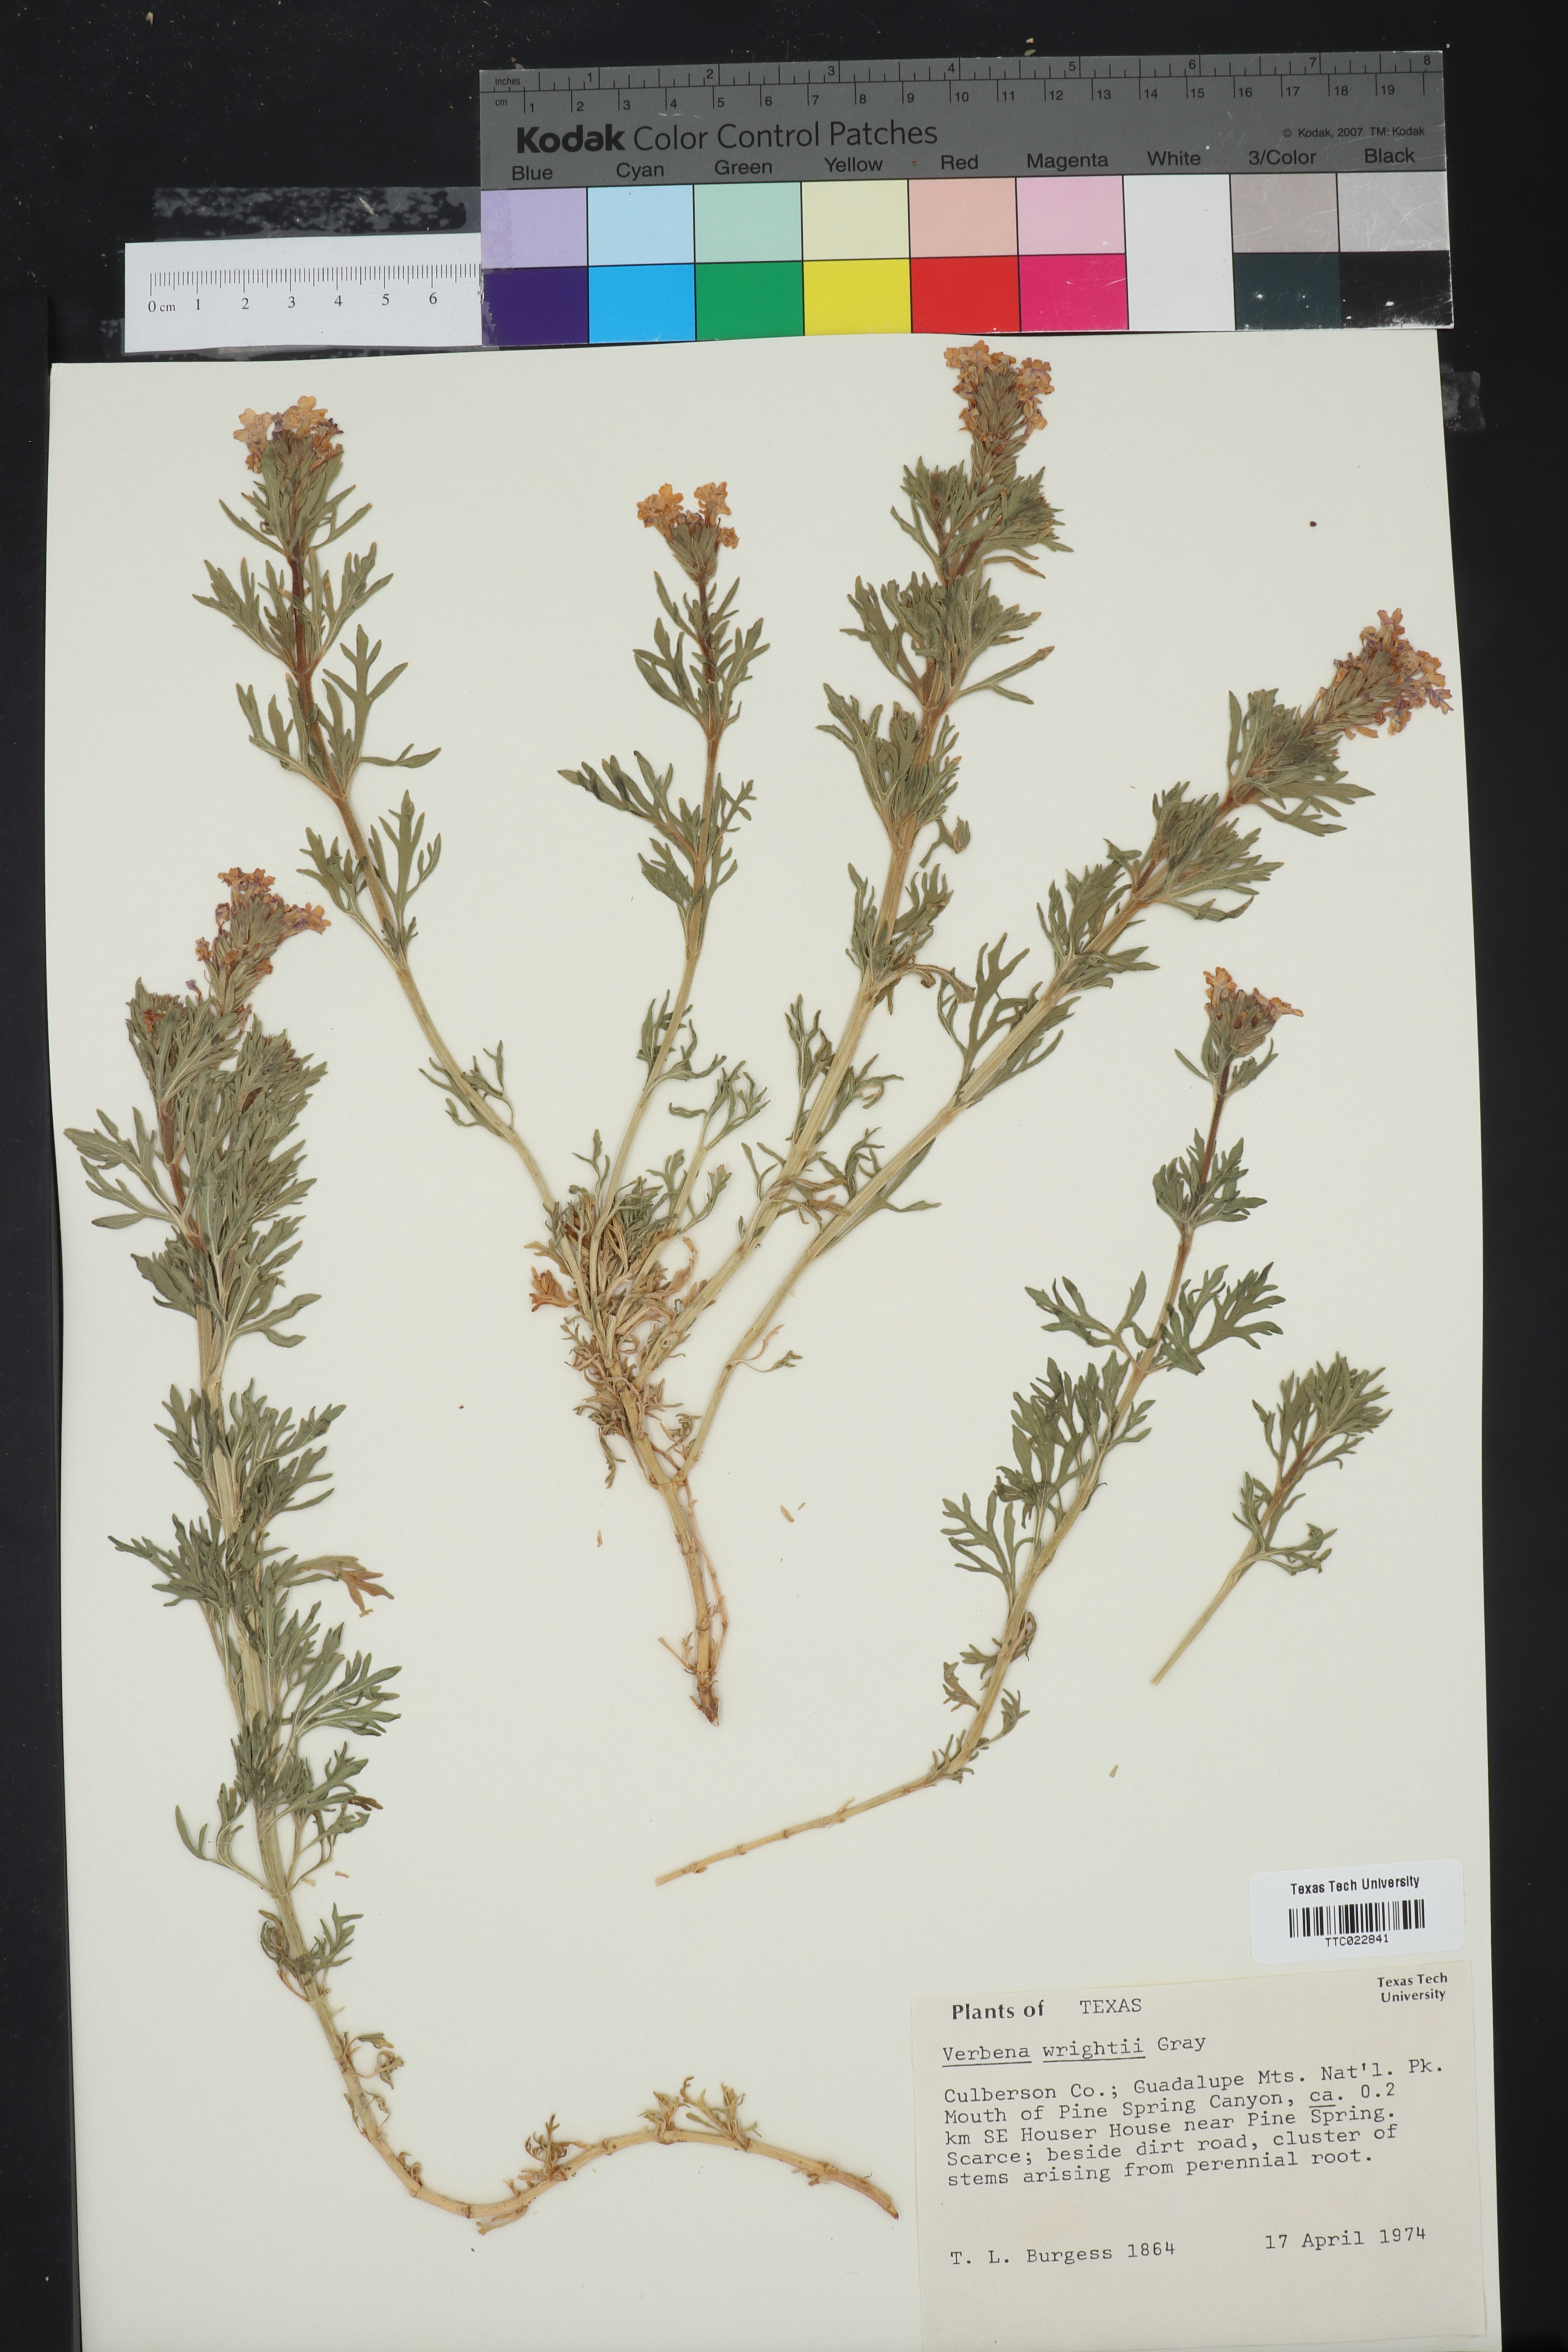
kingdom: Plantae
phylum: Tracheophyta
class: Magnoliopsida
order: Lamiales
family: Verbenaceae
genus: Verbena
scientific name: Verbena bipinnatifida
